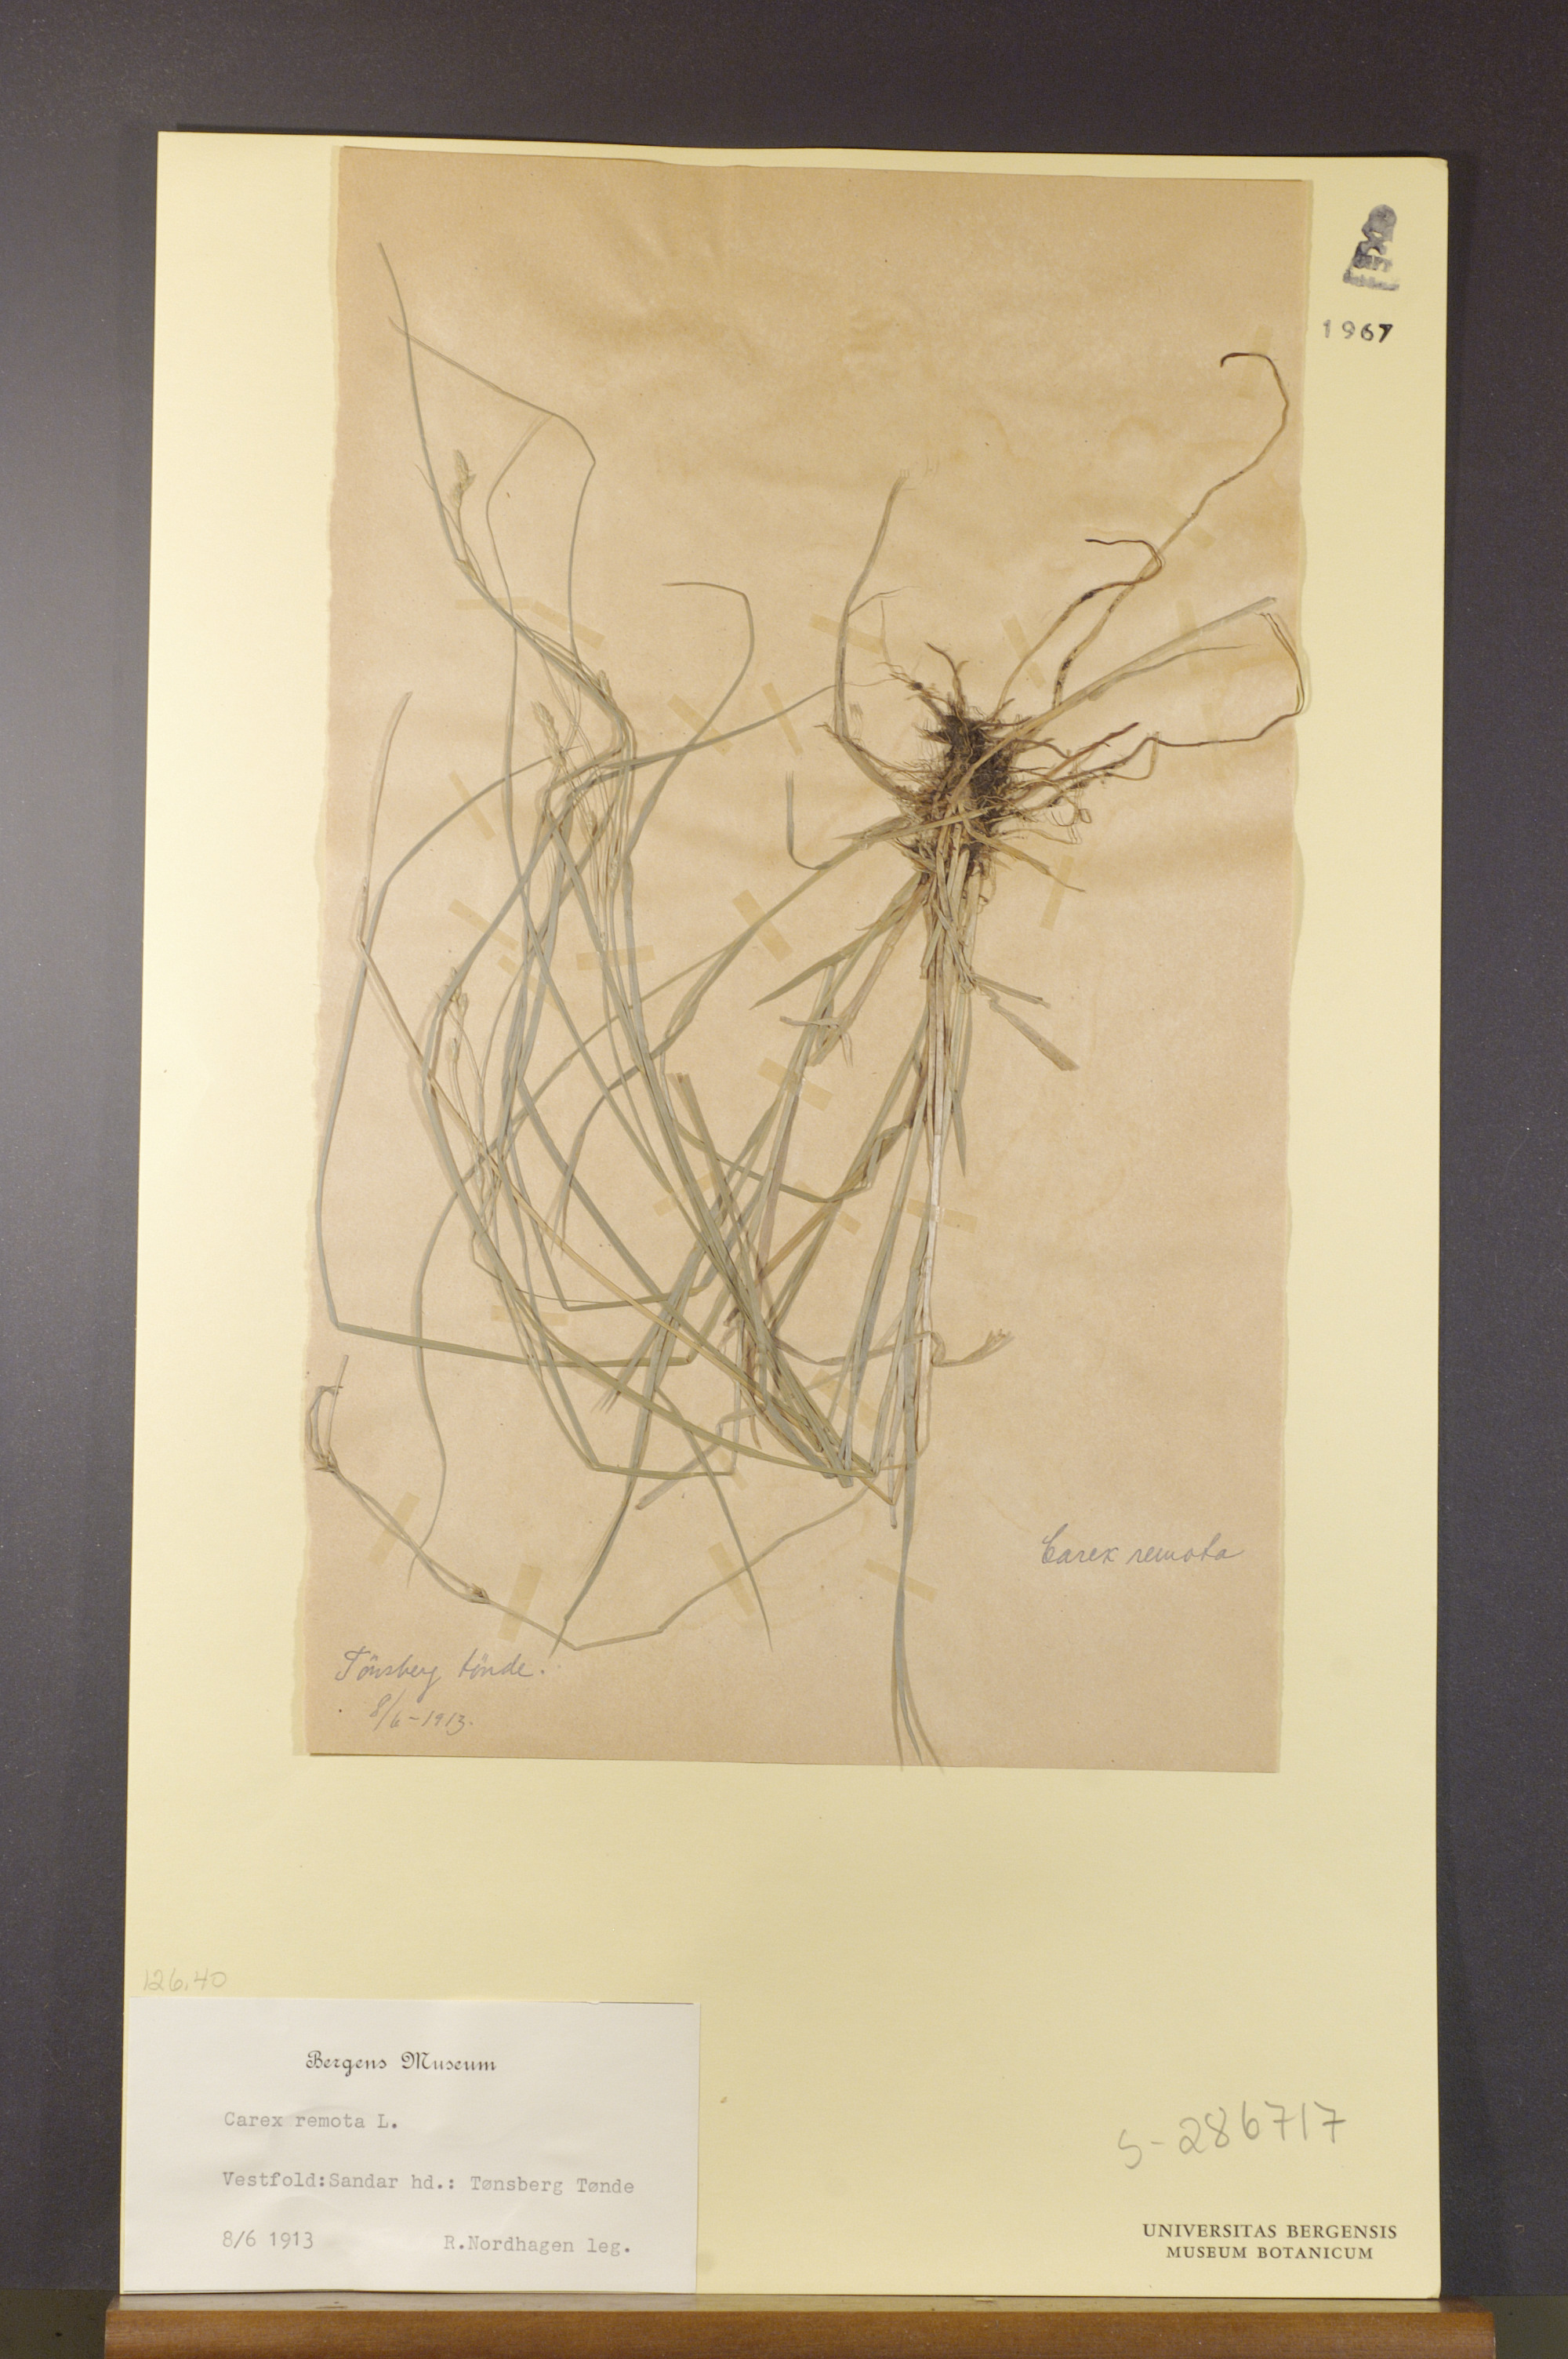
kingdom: Plantae
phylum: Tracheophyta
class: Liliopsida
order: Poales
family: Cyperaceae
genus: Carex
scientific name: Carex remota
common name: Remote sedge
